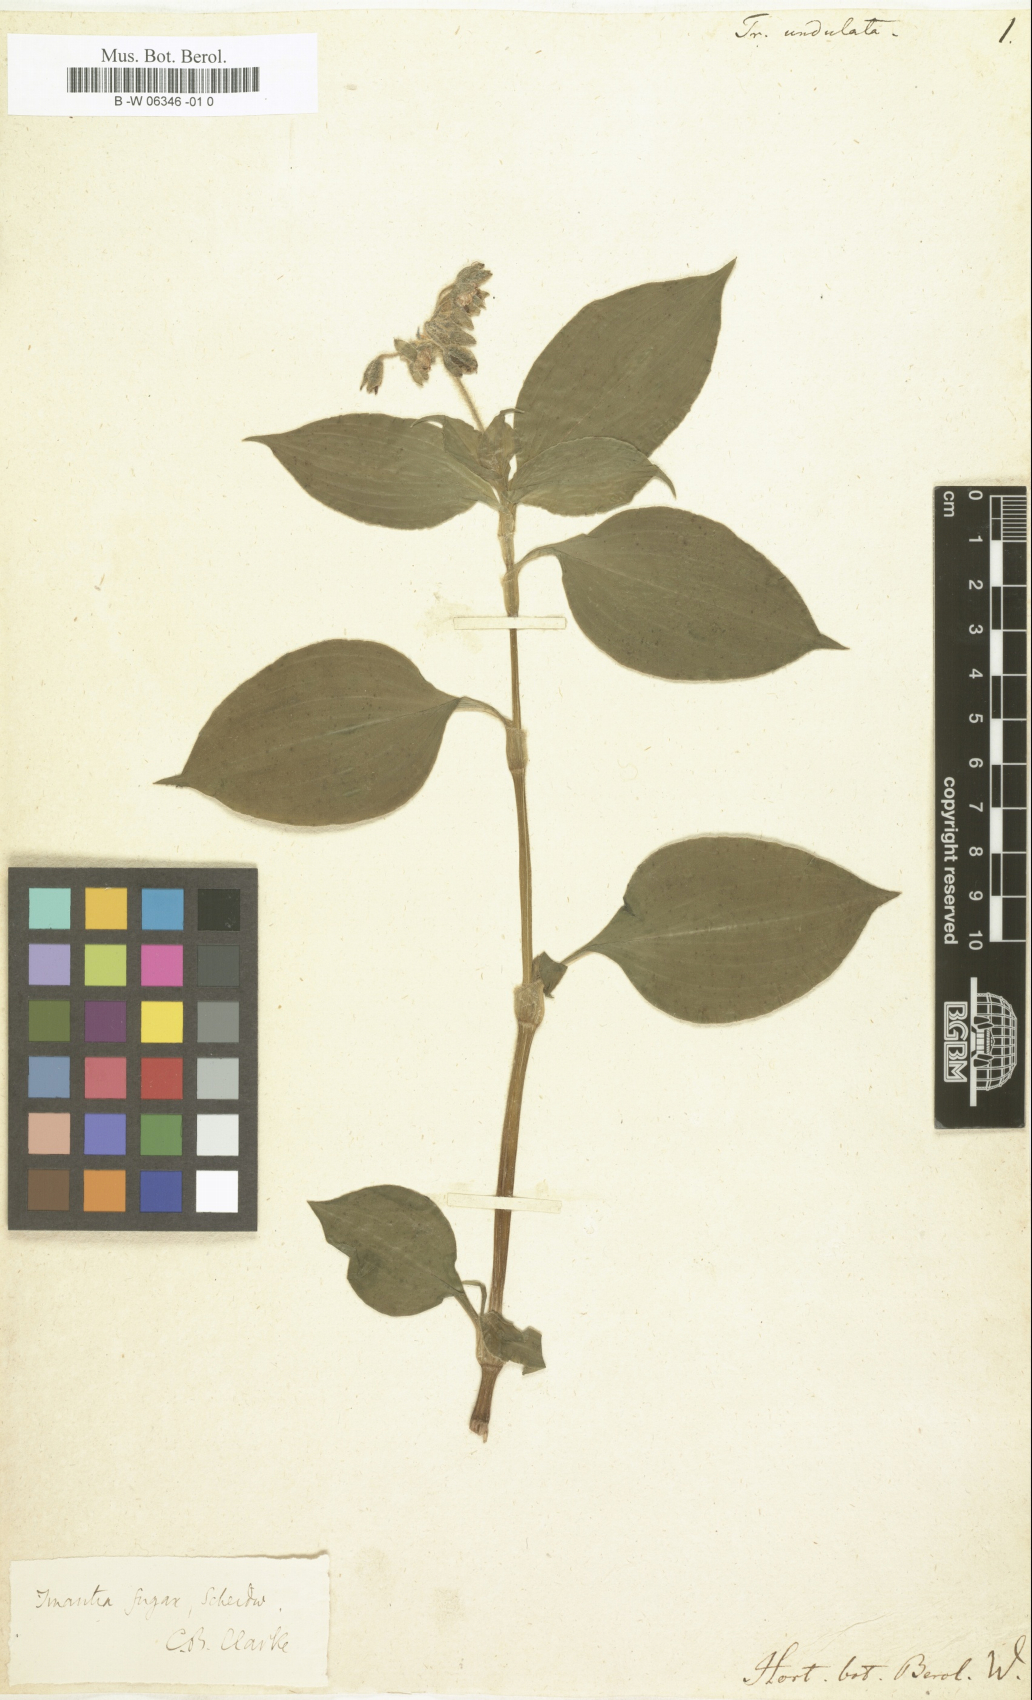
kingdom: Plantae
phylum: Tracheophyta
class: Liliopsida
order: Commelinales
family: Commelinaceae
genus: Tinantia
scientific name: Tinantia erecta
